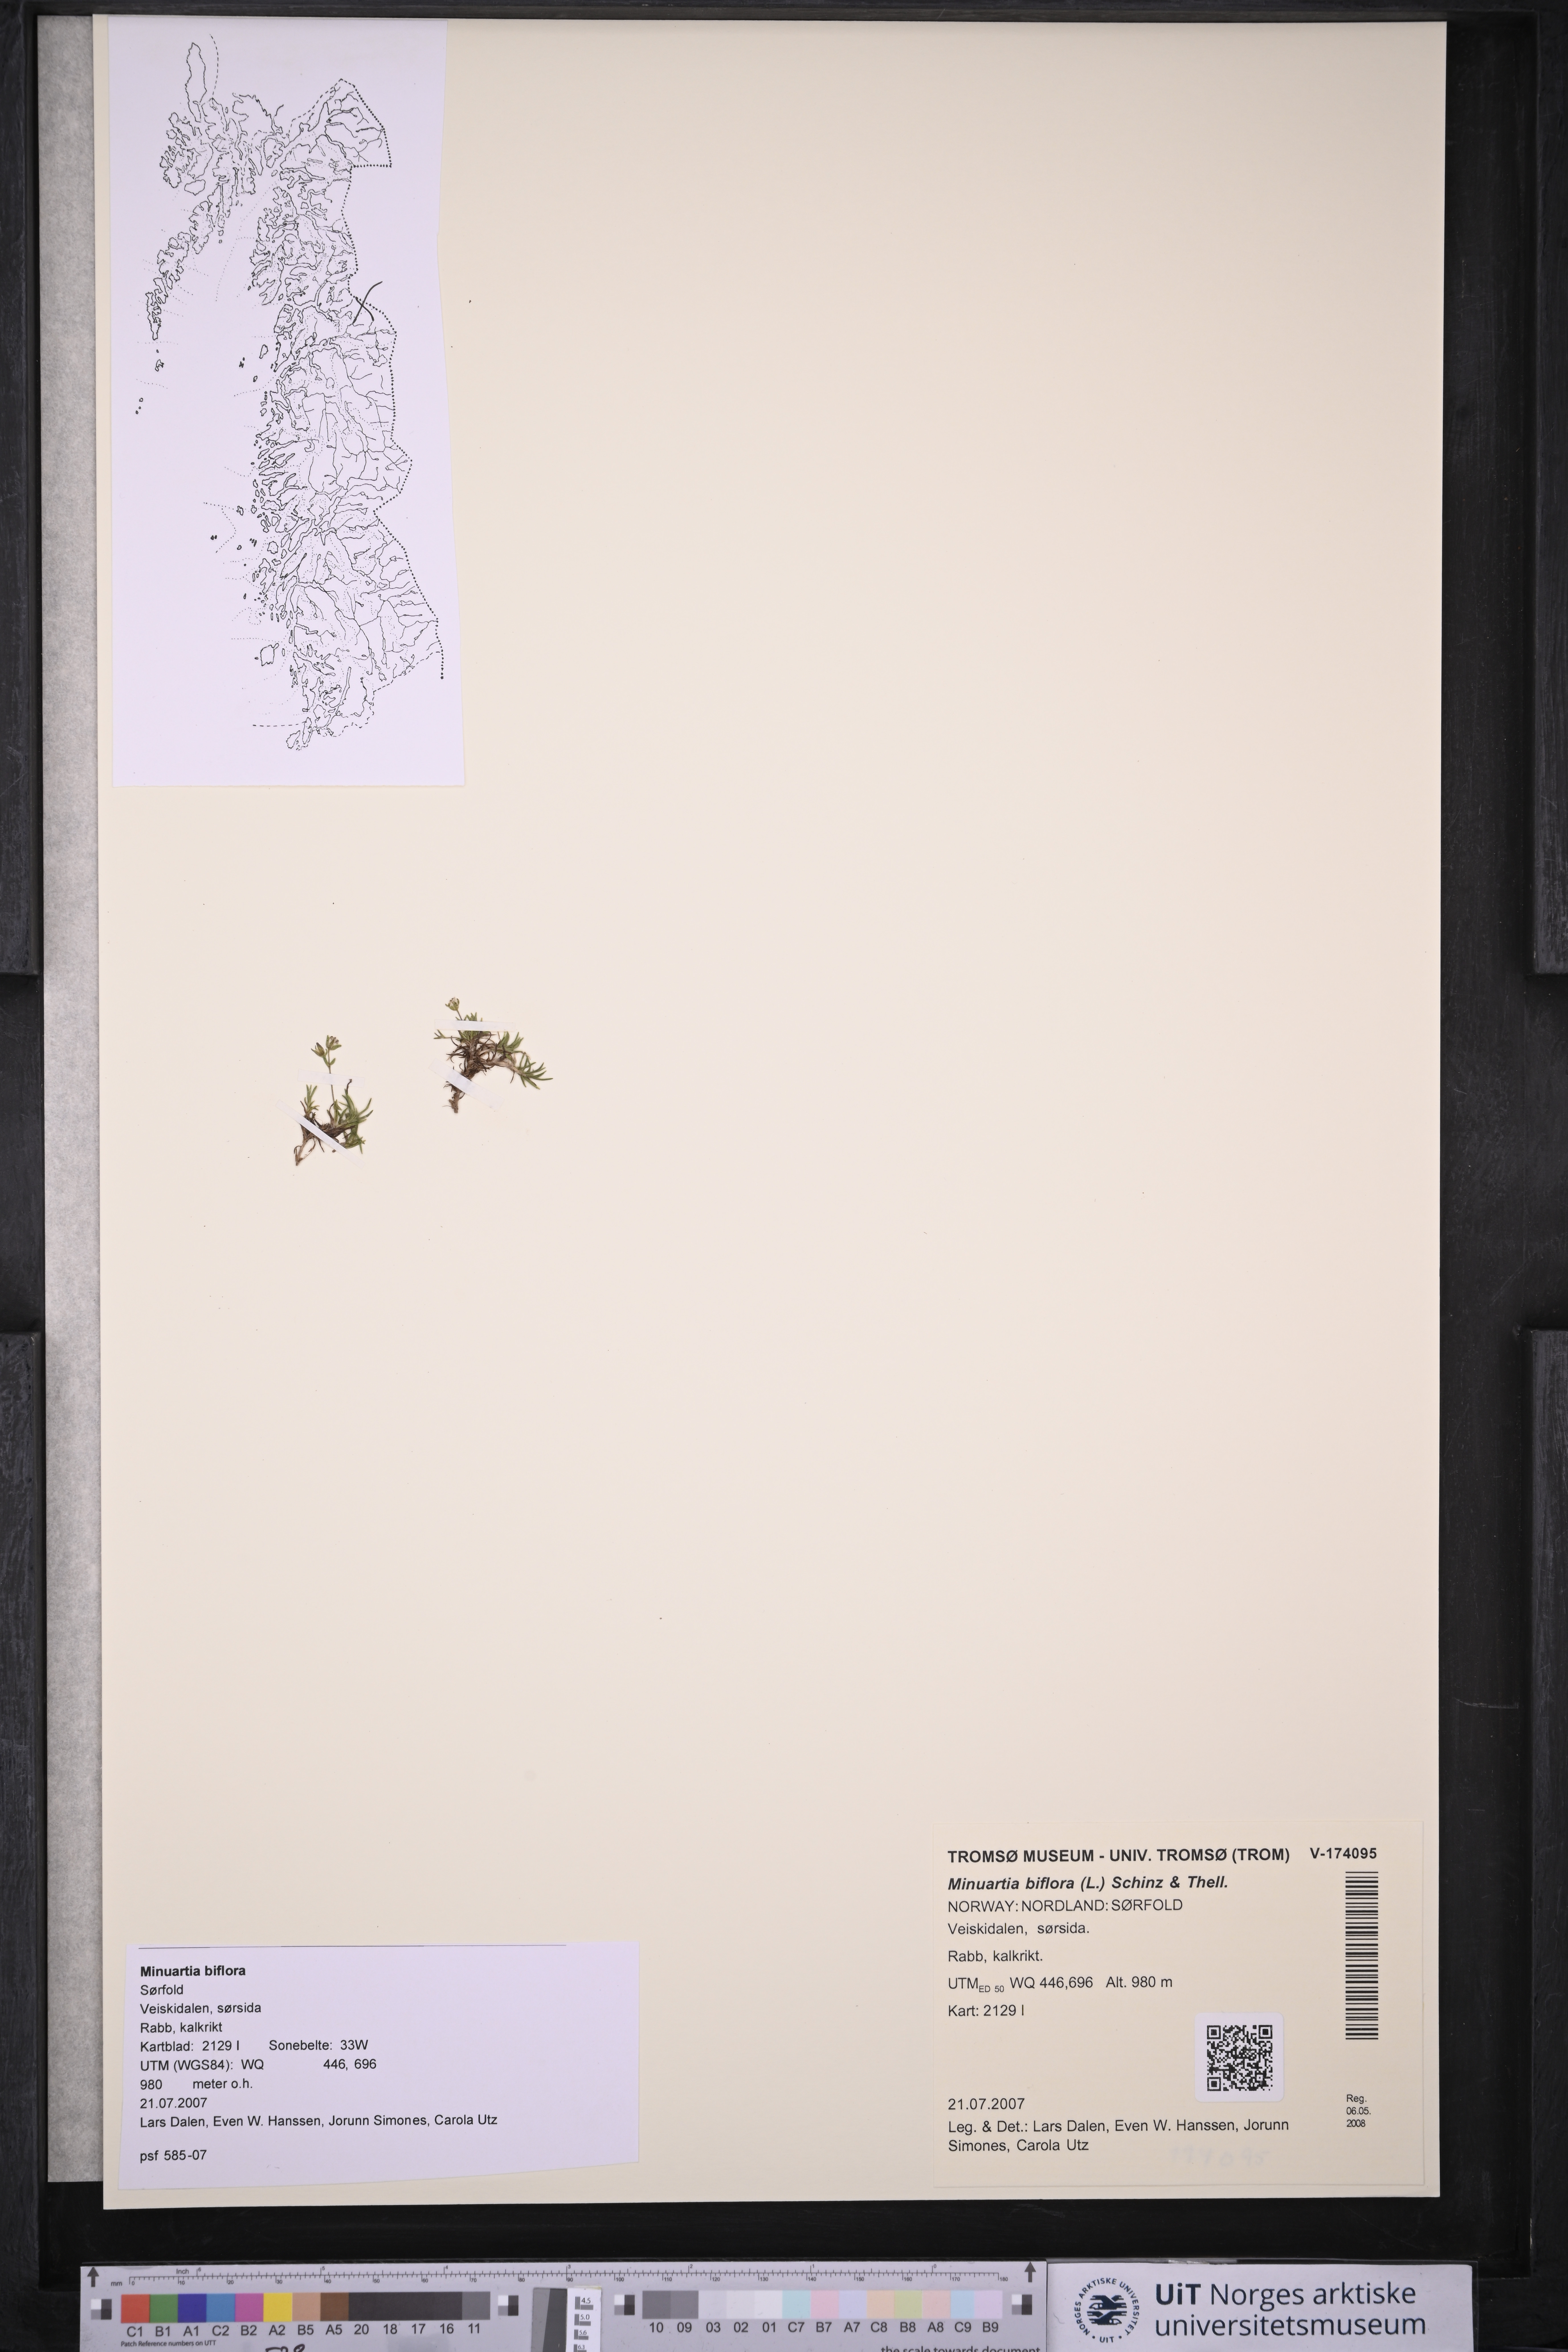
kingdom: Plantae
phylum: Tracheophyta
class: Magnoliopsida
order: Caryophyllales
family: Caryophyllaceae
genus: Cherleria
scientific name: Cherleria biflora
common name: Mountain sandwort
